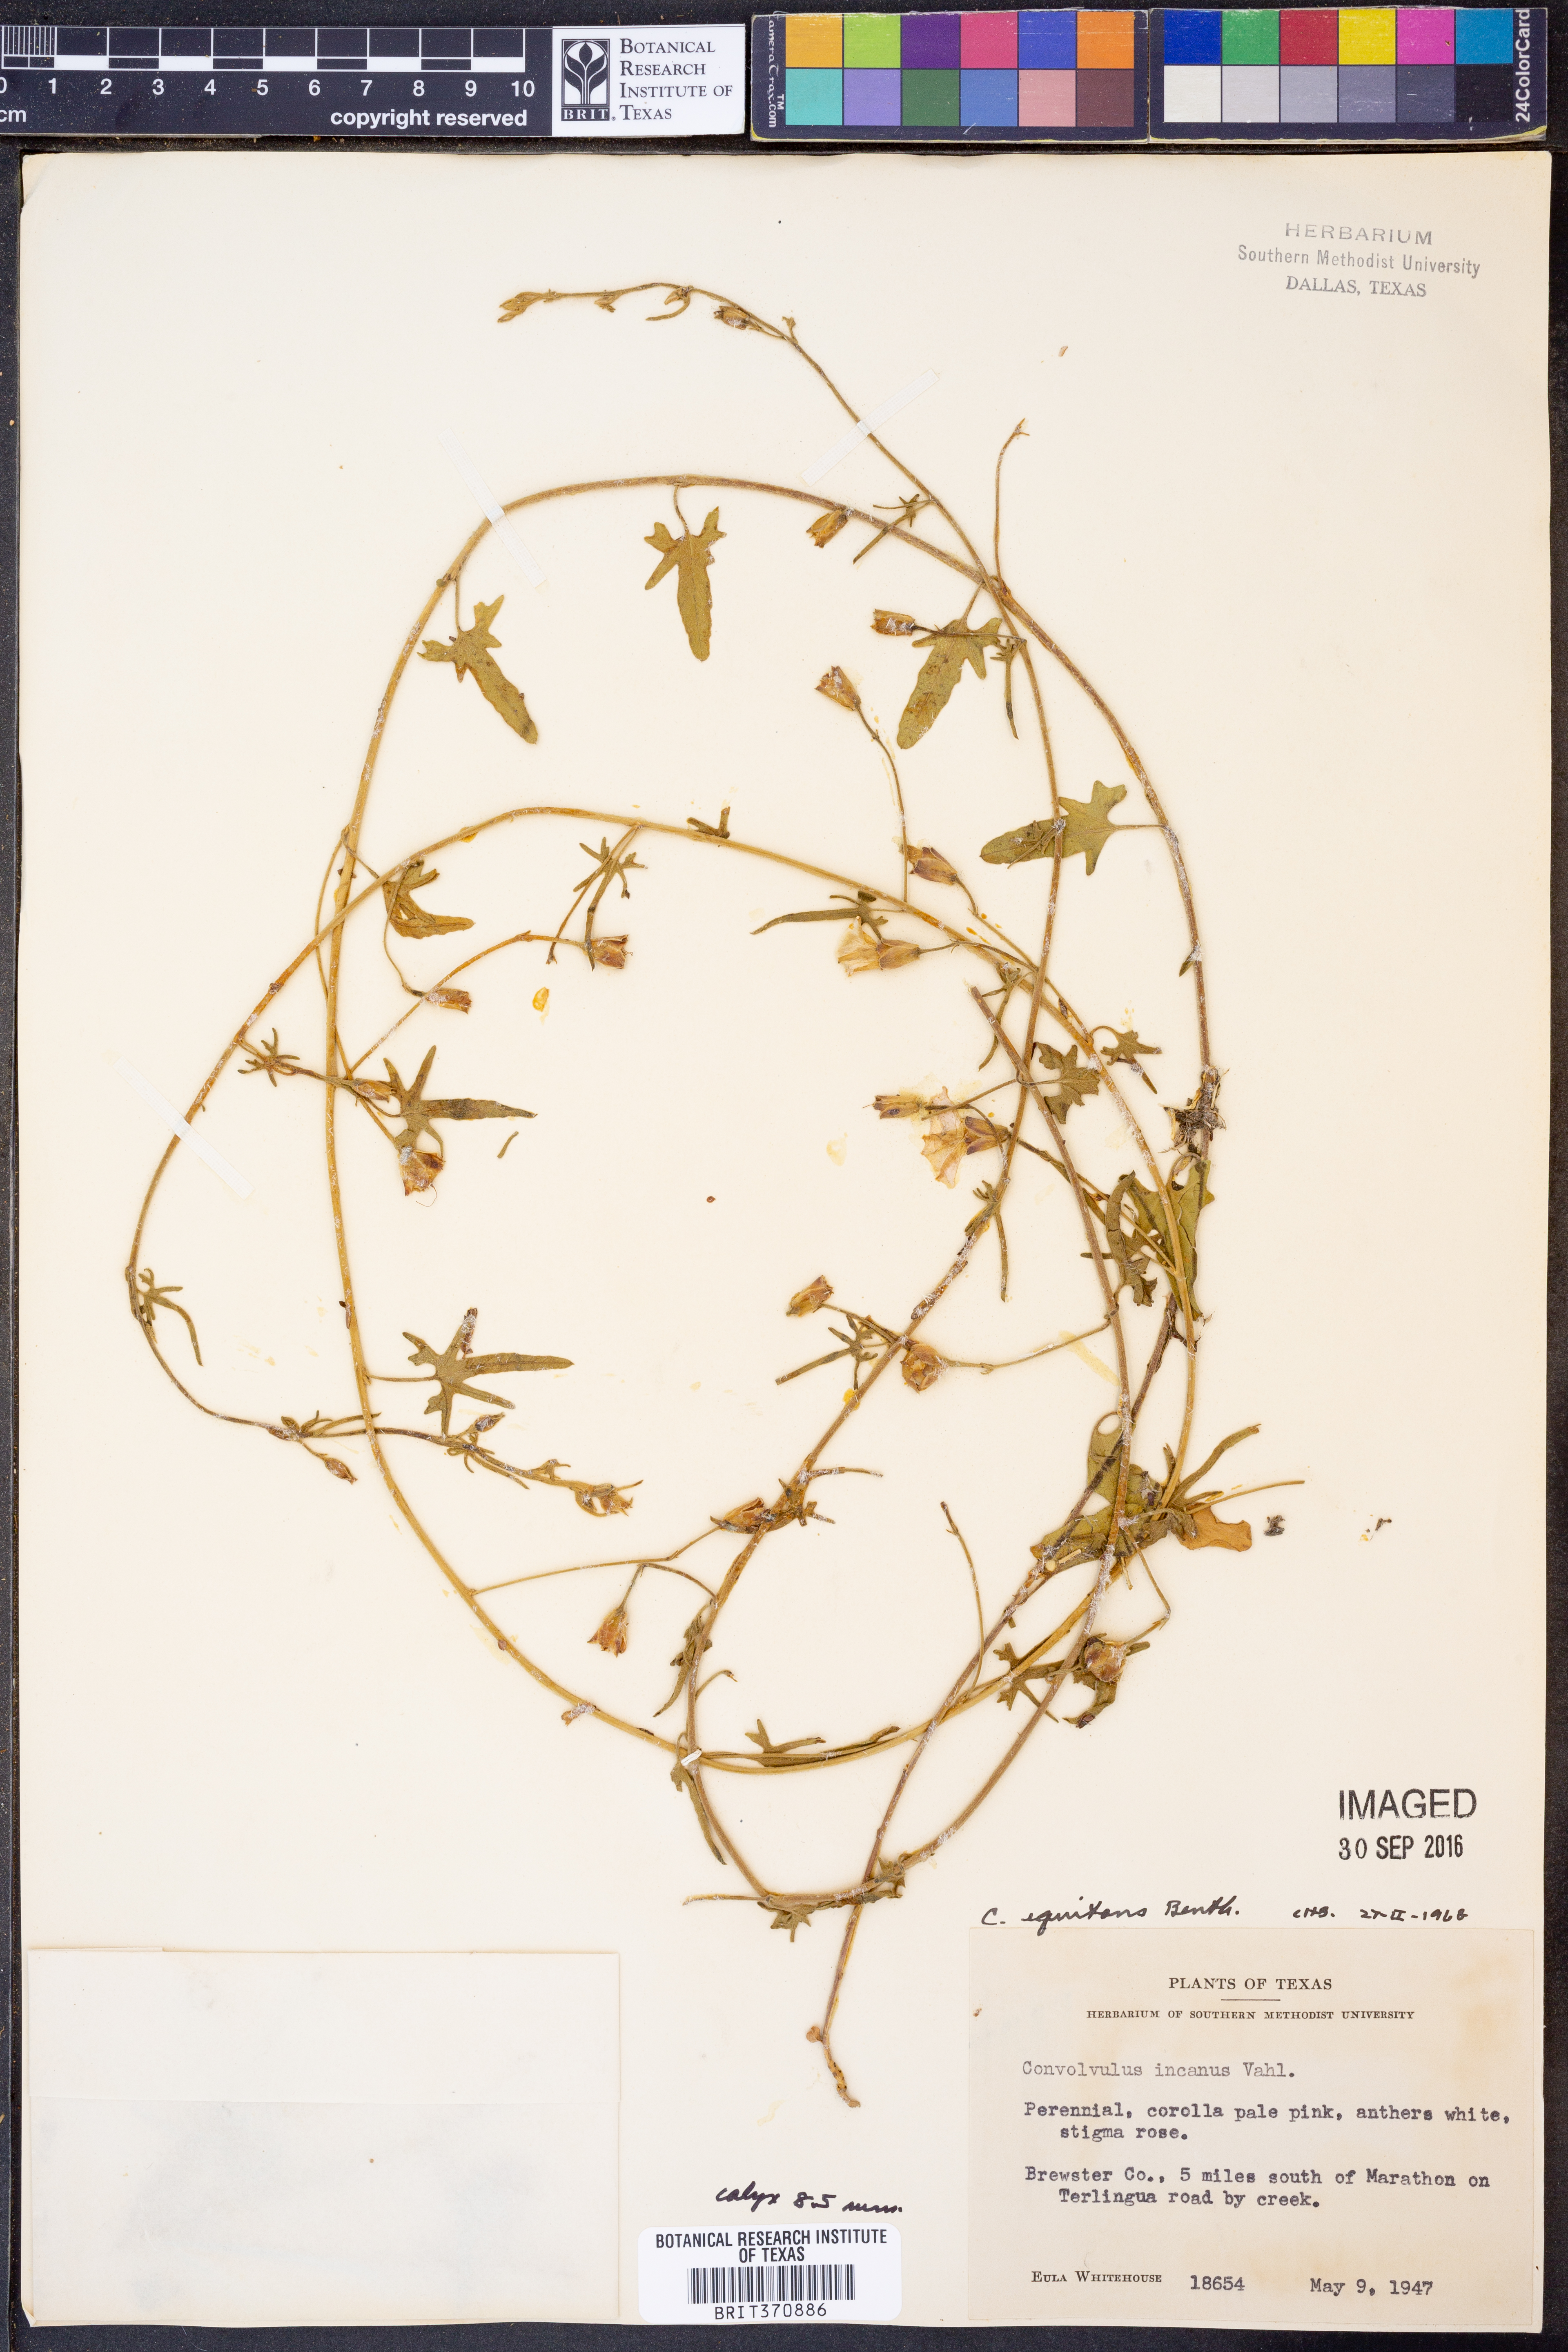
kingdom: Plantae
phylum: Tracheophyta
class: Magnoliopsida
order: Solanales
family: Convolvulaceae
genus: Convolvulus
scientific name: Convolvulus equitans
